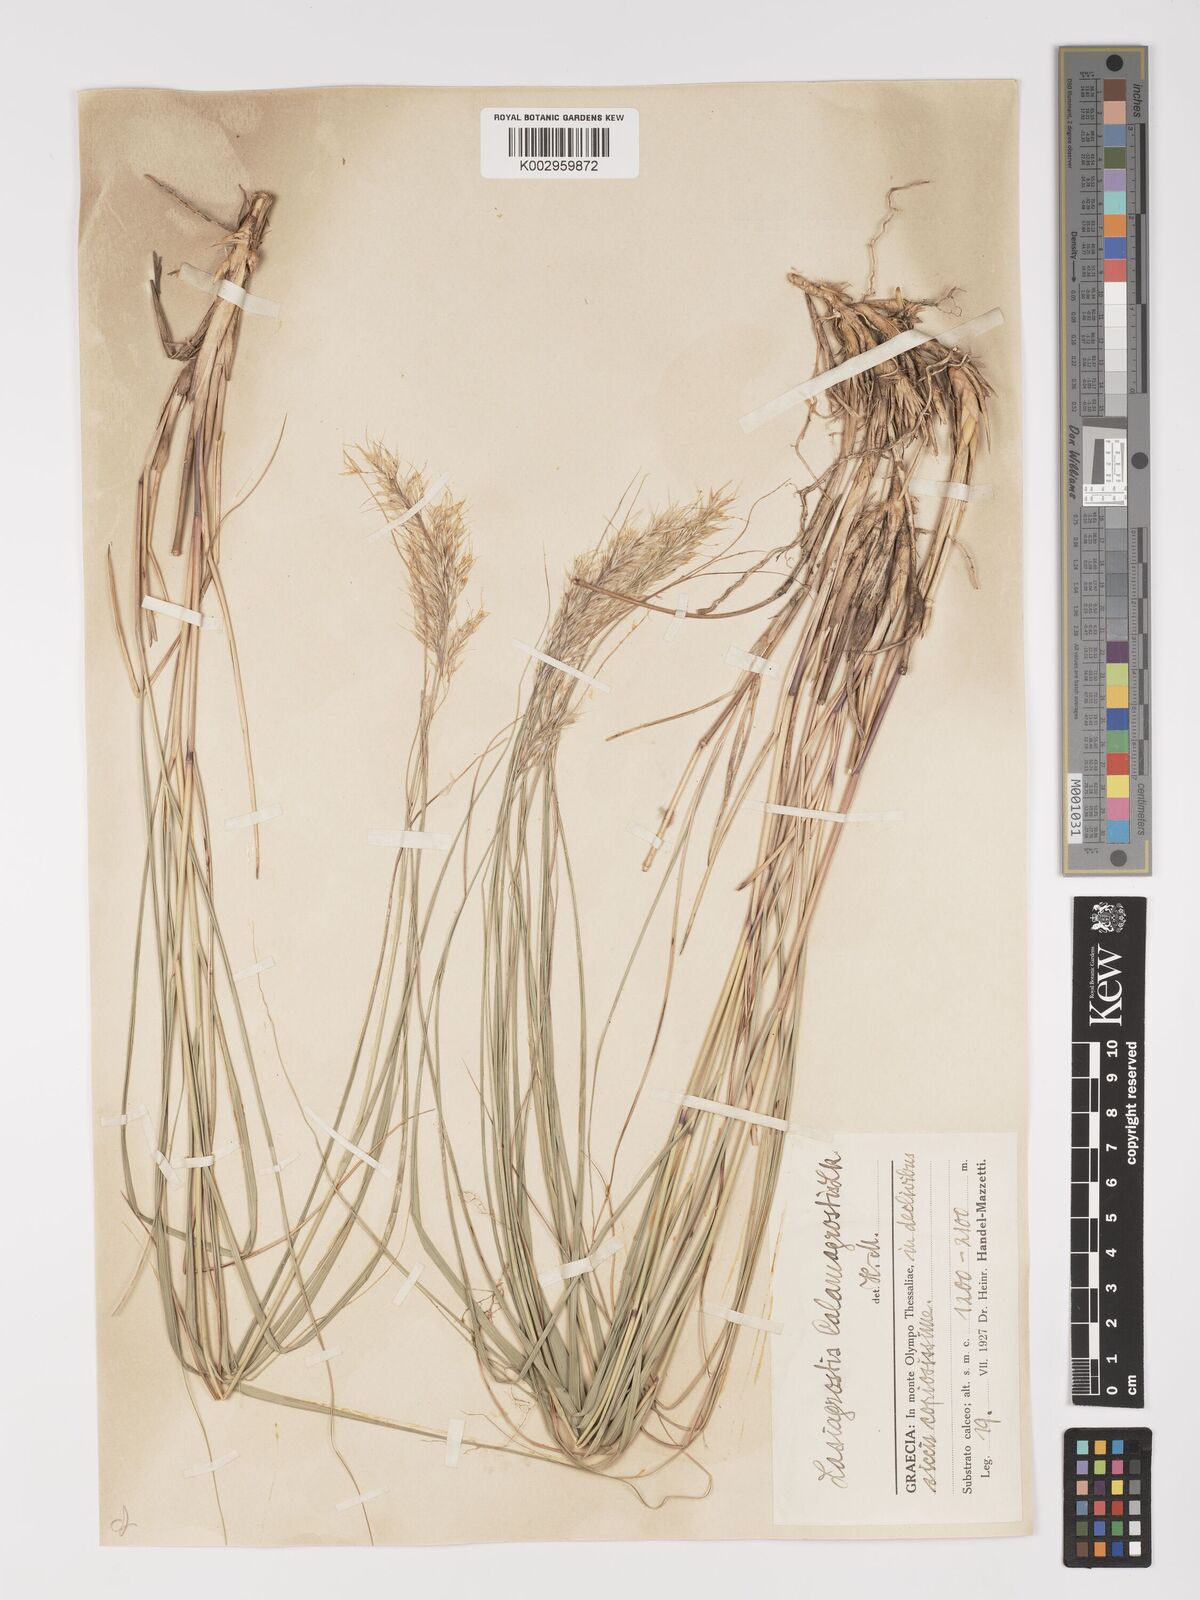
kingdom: Plantae
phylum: Tracheophyta
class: Liliopsida
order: Poales
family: Poaceae
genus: Achnatherum
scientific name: Achnatherum calamagrostis
